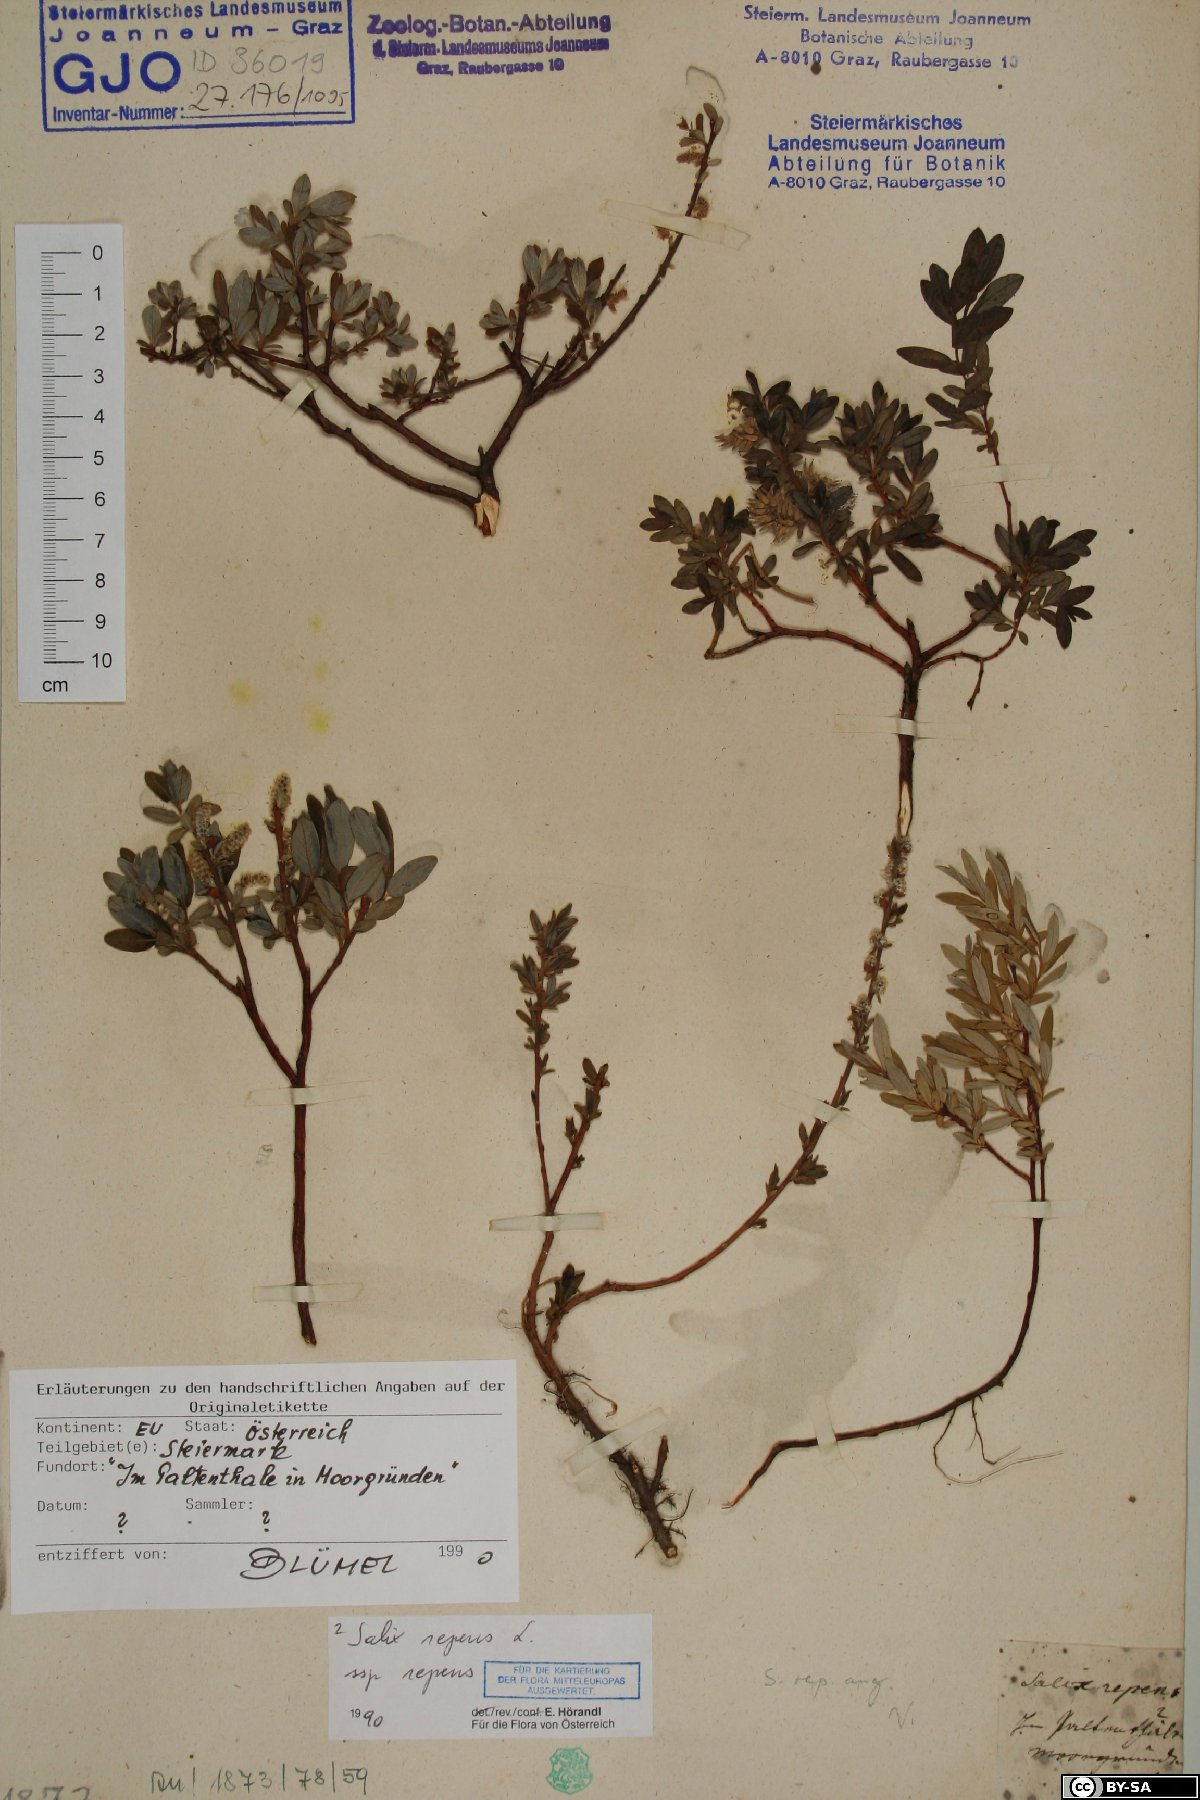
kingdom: Plantae
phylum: Tracheophyta
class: Magnoliopsida
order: Malpighiales
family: Salicaceae
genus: Salix
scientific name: Salix repens
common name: Creeping willow
